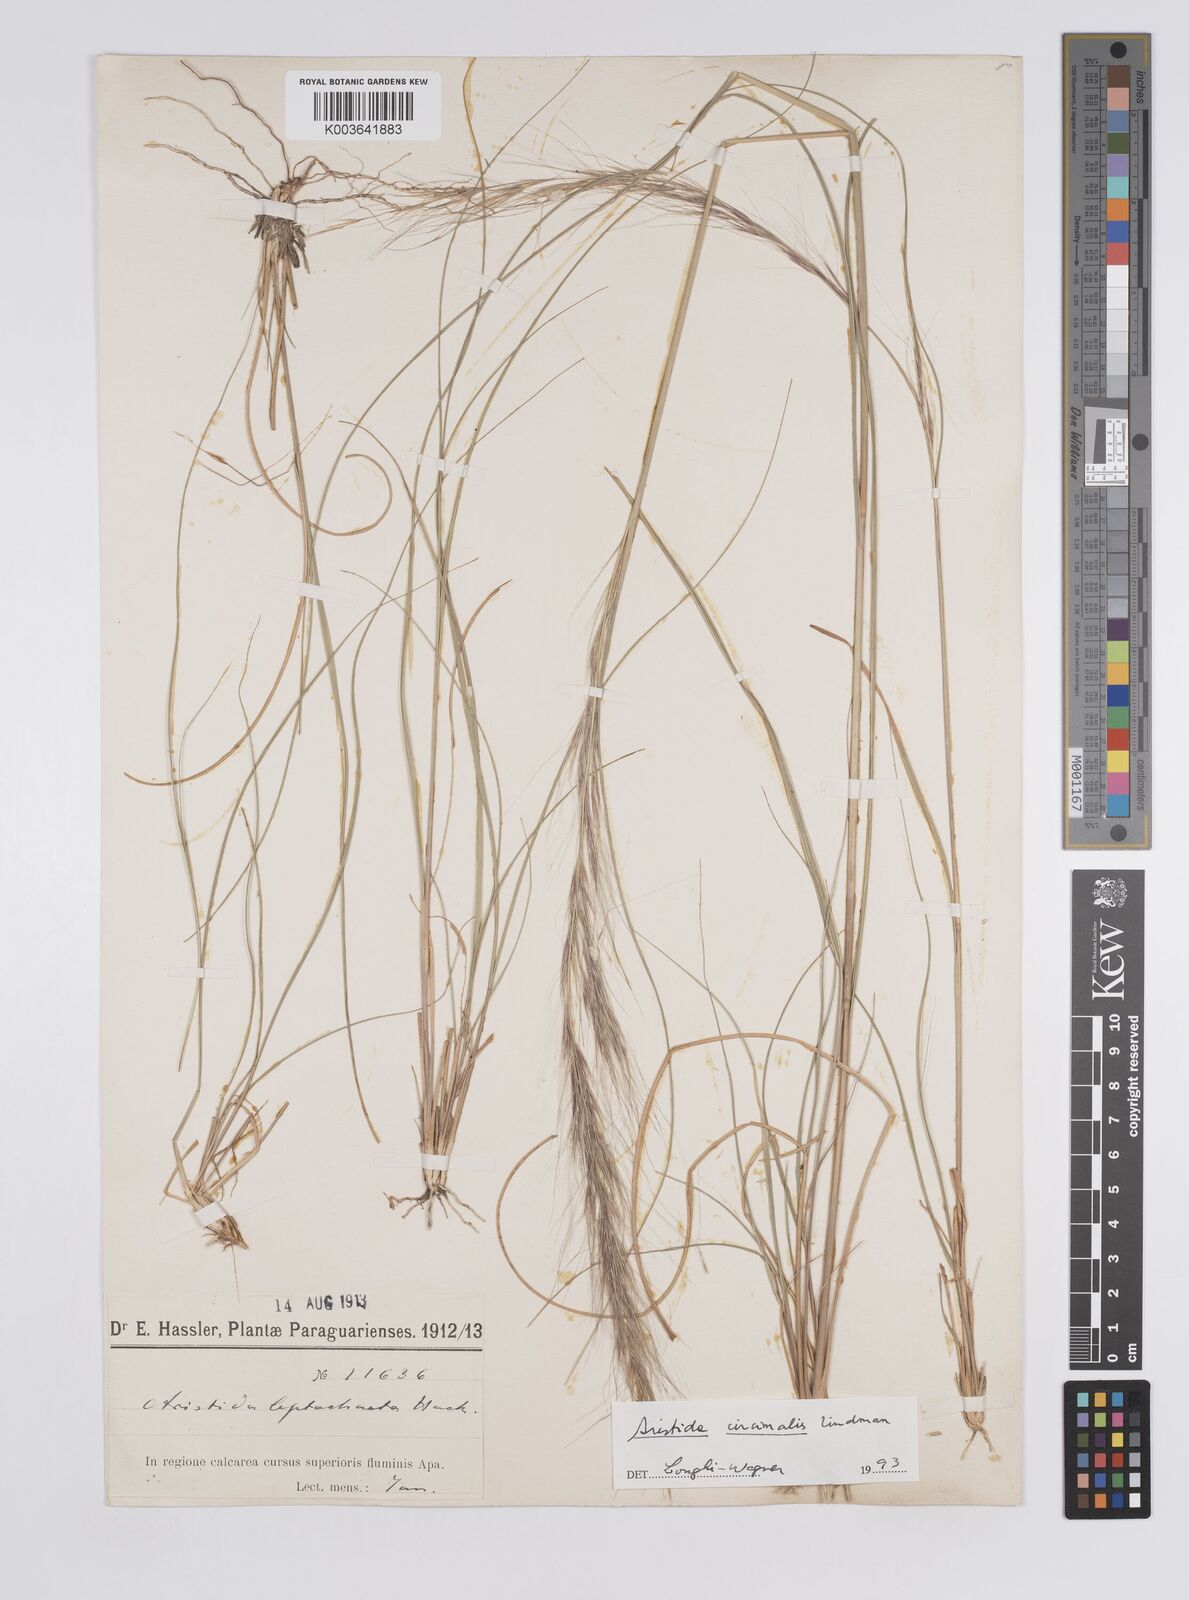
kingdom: Plantae
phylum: Tracheophyta
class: Liliopsida
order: Poales
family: Poaceae
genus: Aristida
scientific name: Aristida circinalis
